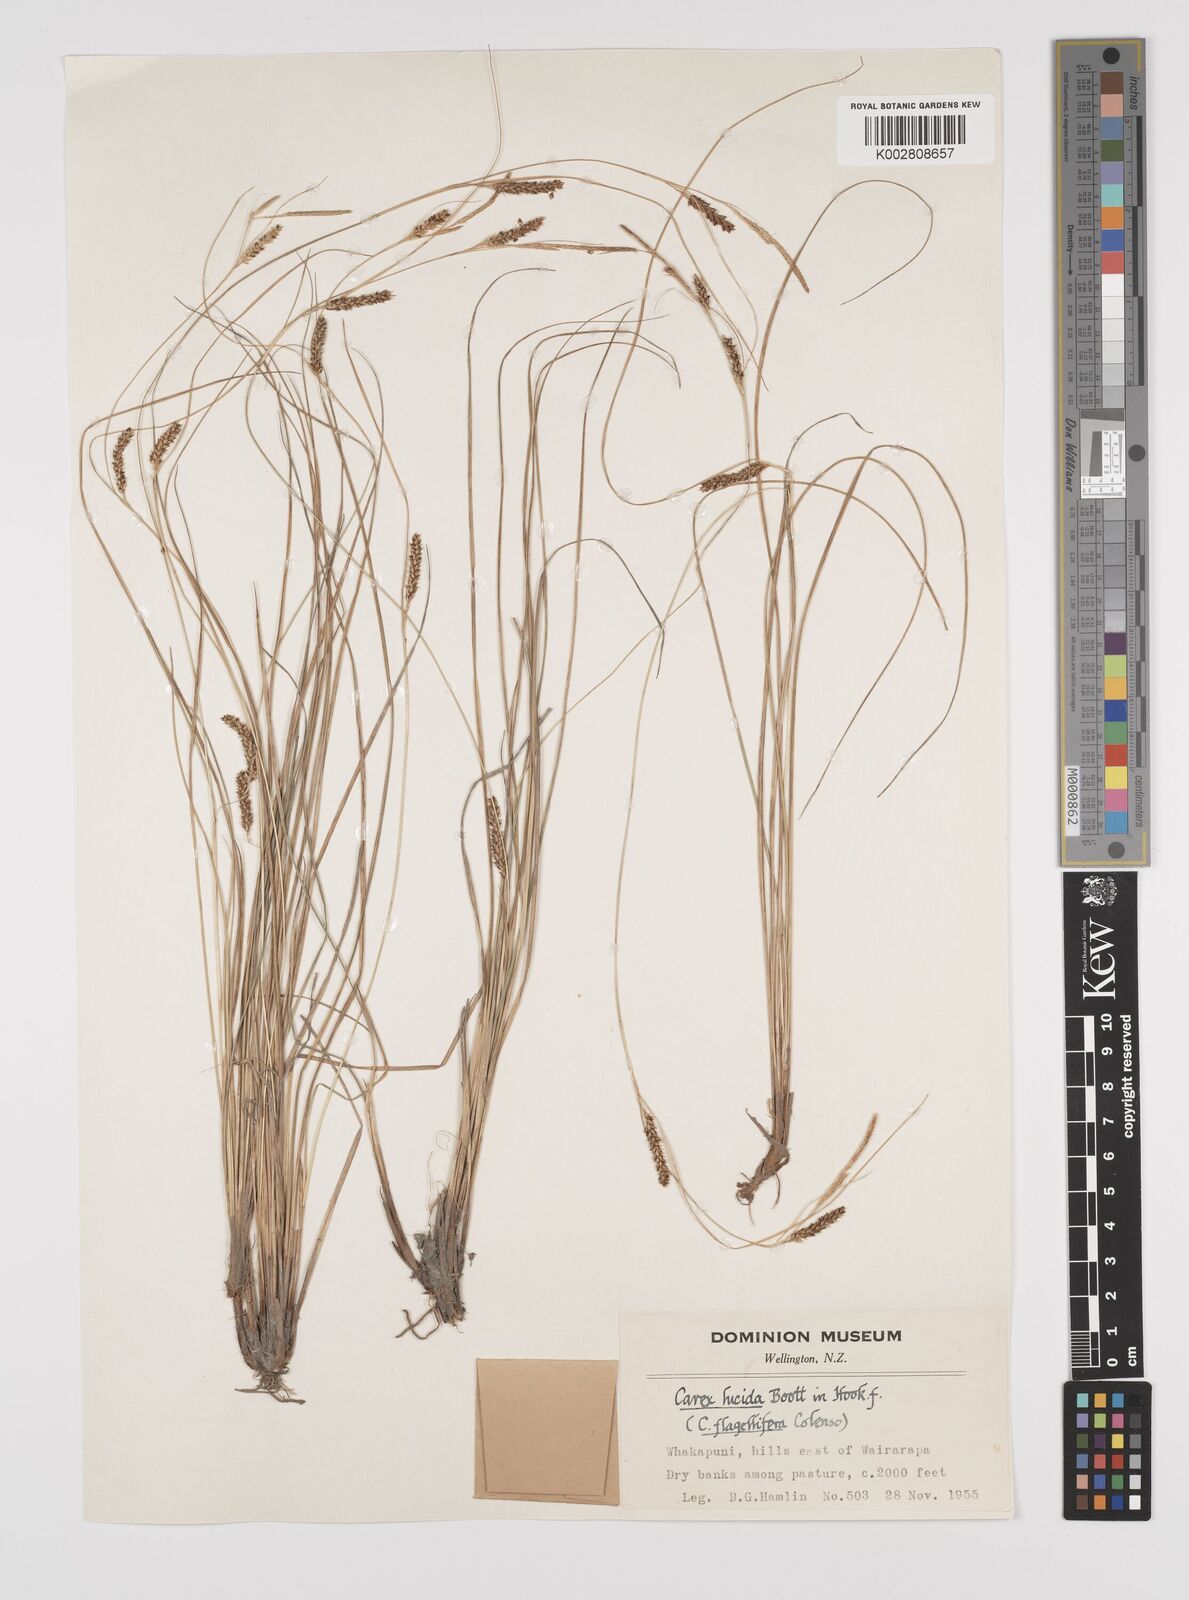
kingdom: Plantae
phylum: Tracheophyta
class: Liliopsida
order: Poales
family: Cyperaceae
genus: Carex
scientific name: Carex flagellifera
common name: Glen murray tussock
